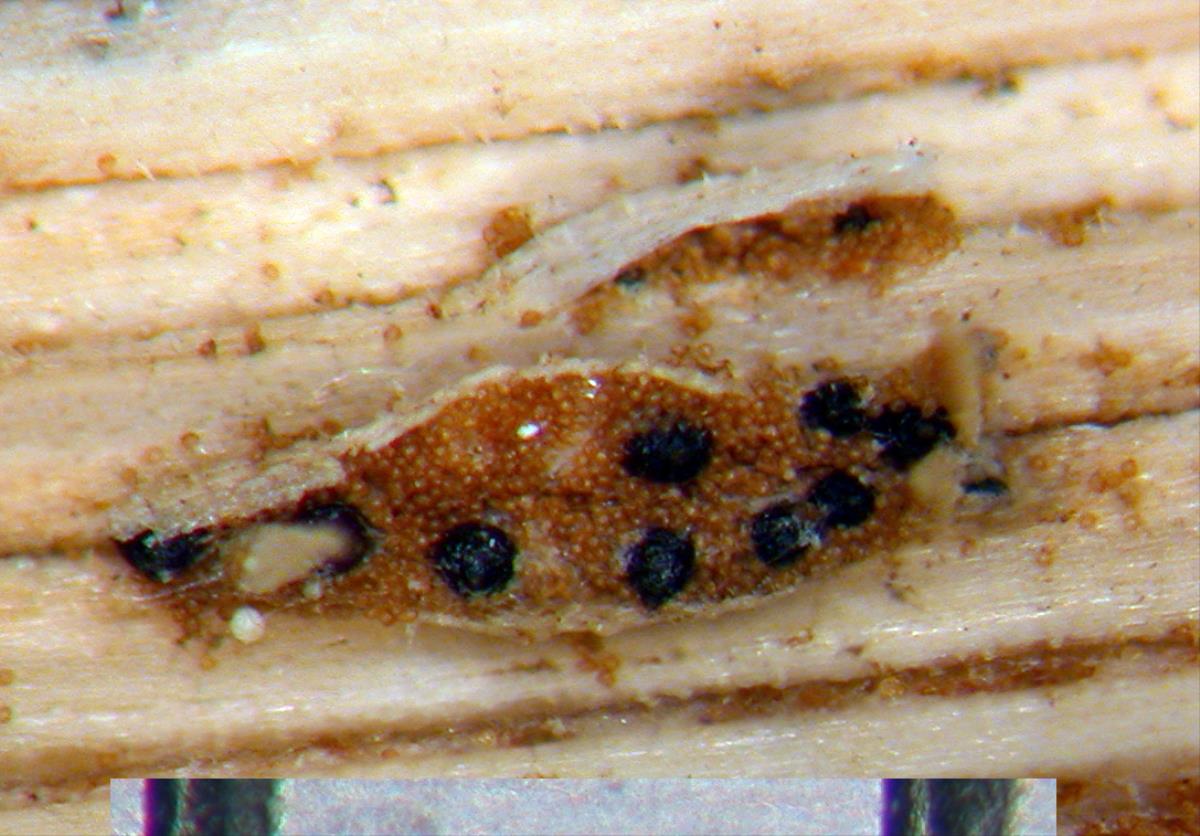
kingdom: Fungi
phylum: Ascomycota
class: Dothideomycetes
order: Pleosporales
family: Phaeosphaeriaceae
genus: Sphaerellopsis
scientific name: Sphaerellopsis filum
